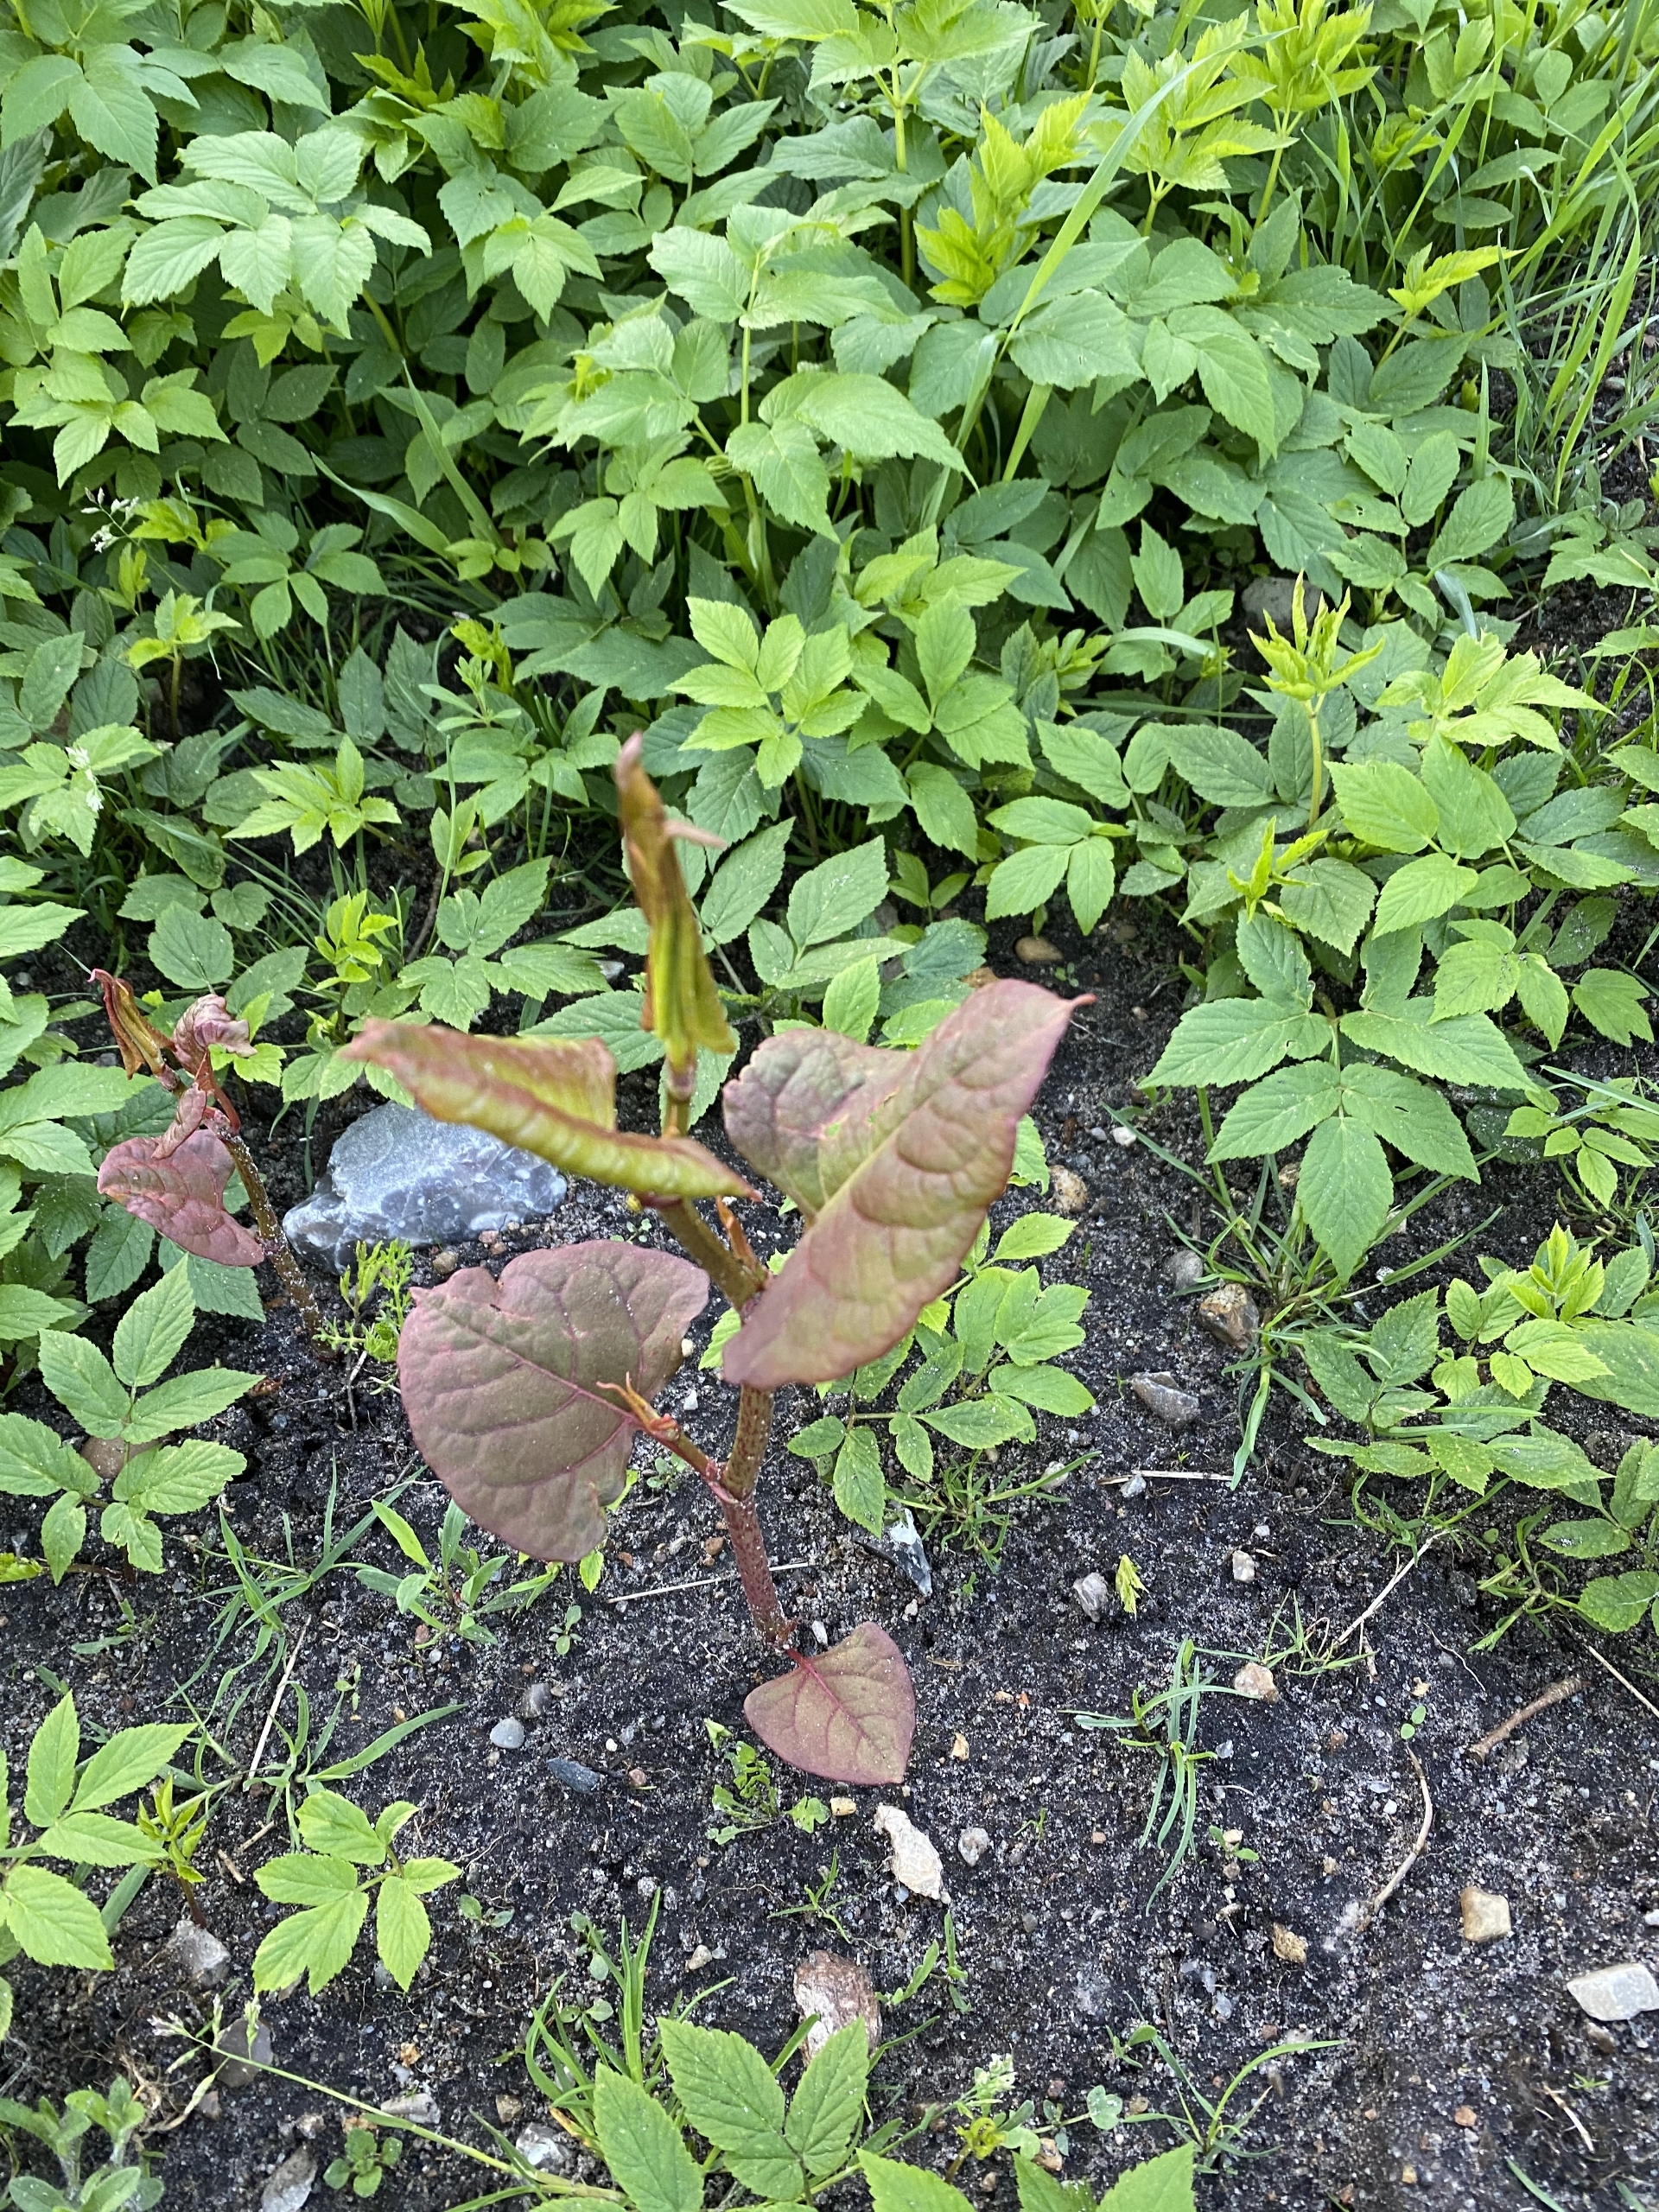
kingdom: Plantae
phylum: Tracheophyta
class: Magnoliopsida
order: Caryophyllales
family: Polygonaceae
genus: Reynoutria
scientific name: Reynoutria japonica
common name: Japan-pileurt
